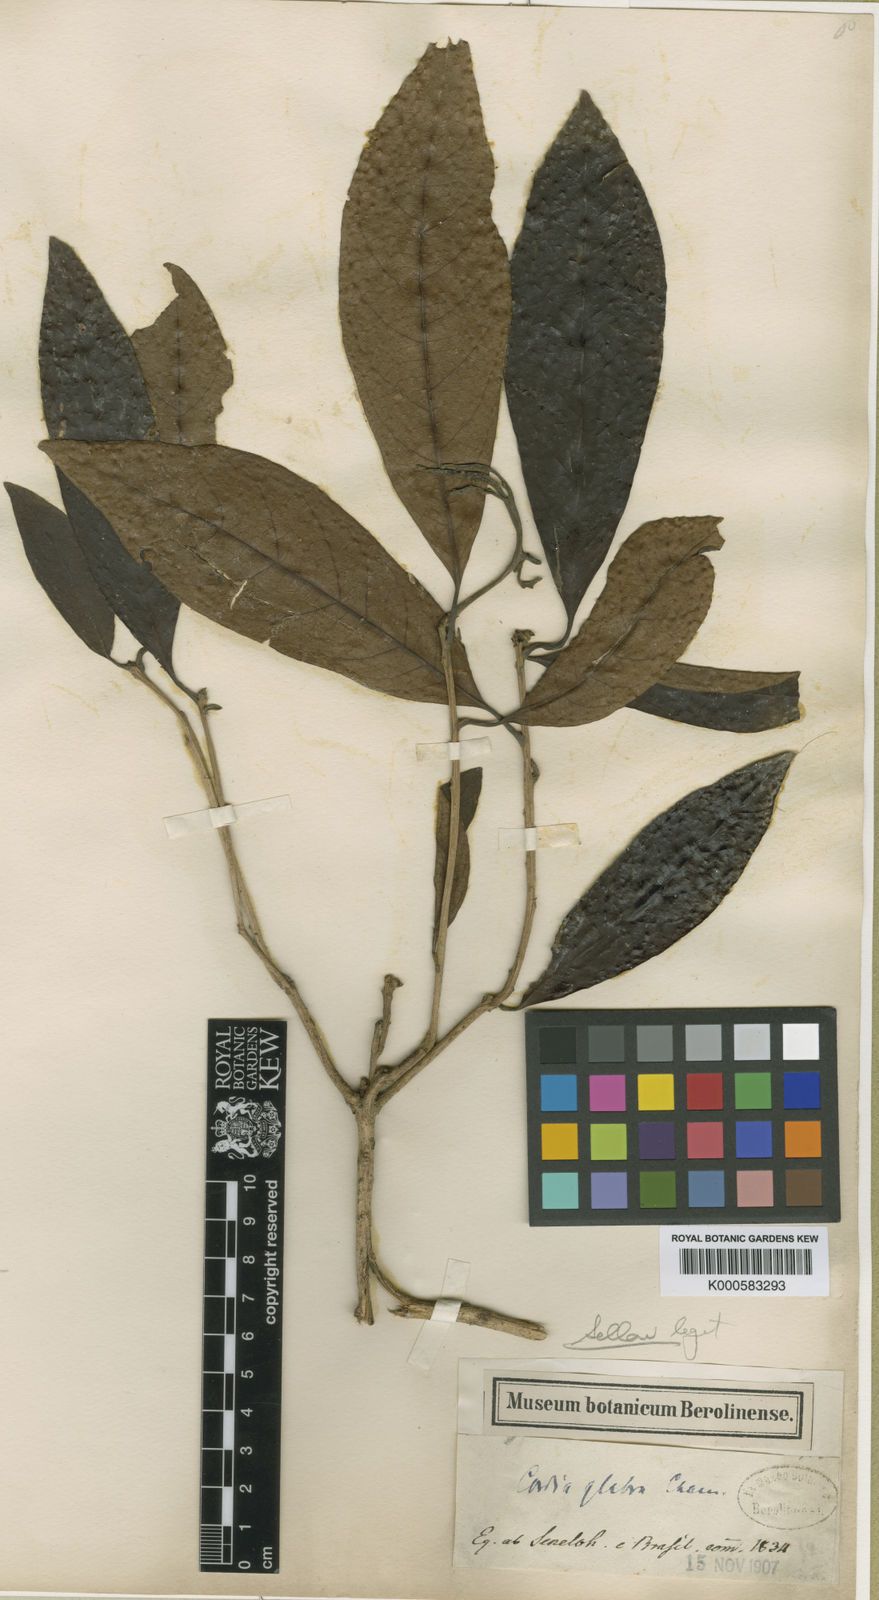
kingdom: Plantae
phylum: Tracheophyta
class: Magnoliopsida
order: Boraginales
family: Cordiaceae
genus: Cordia
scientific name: Cordia superba
